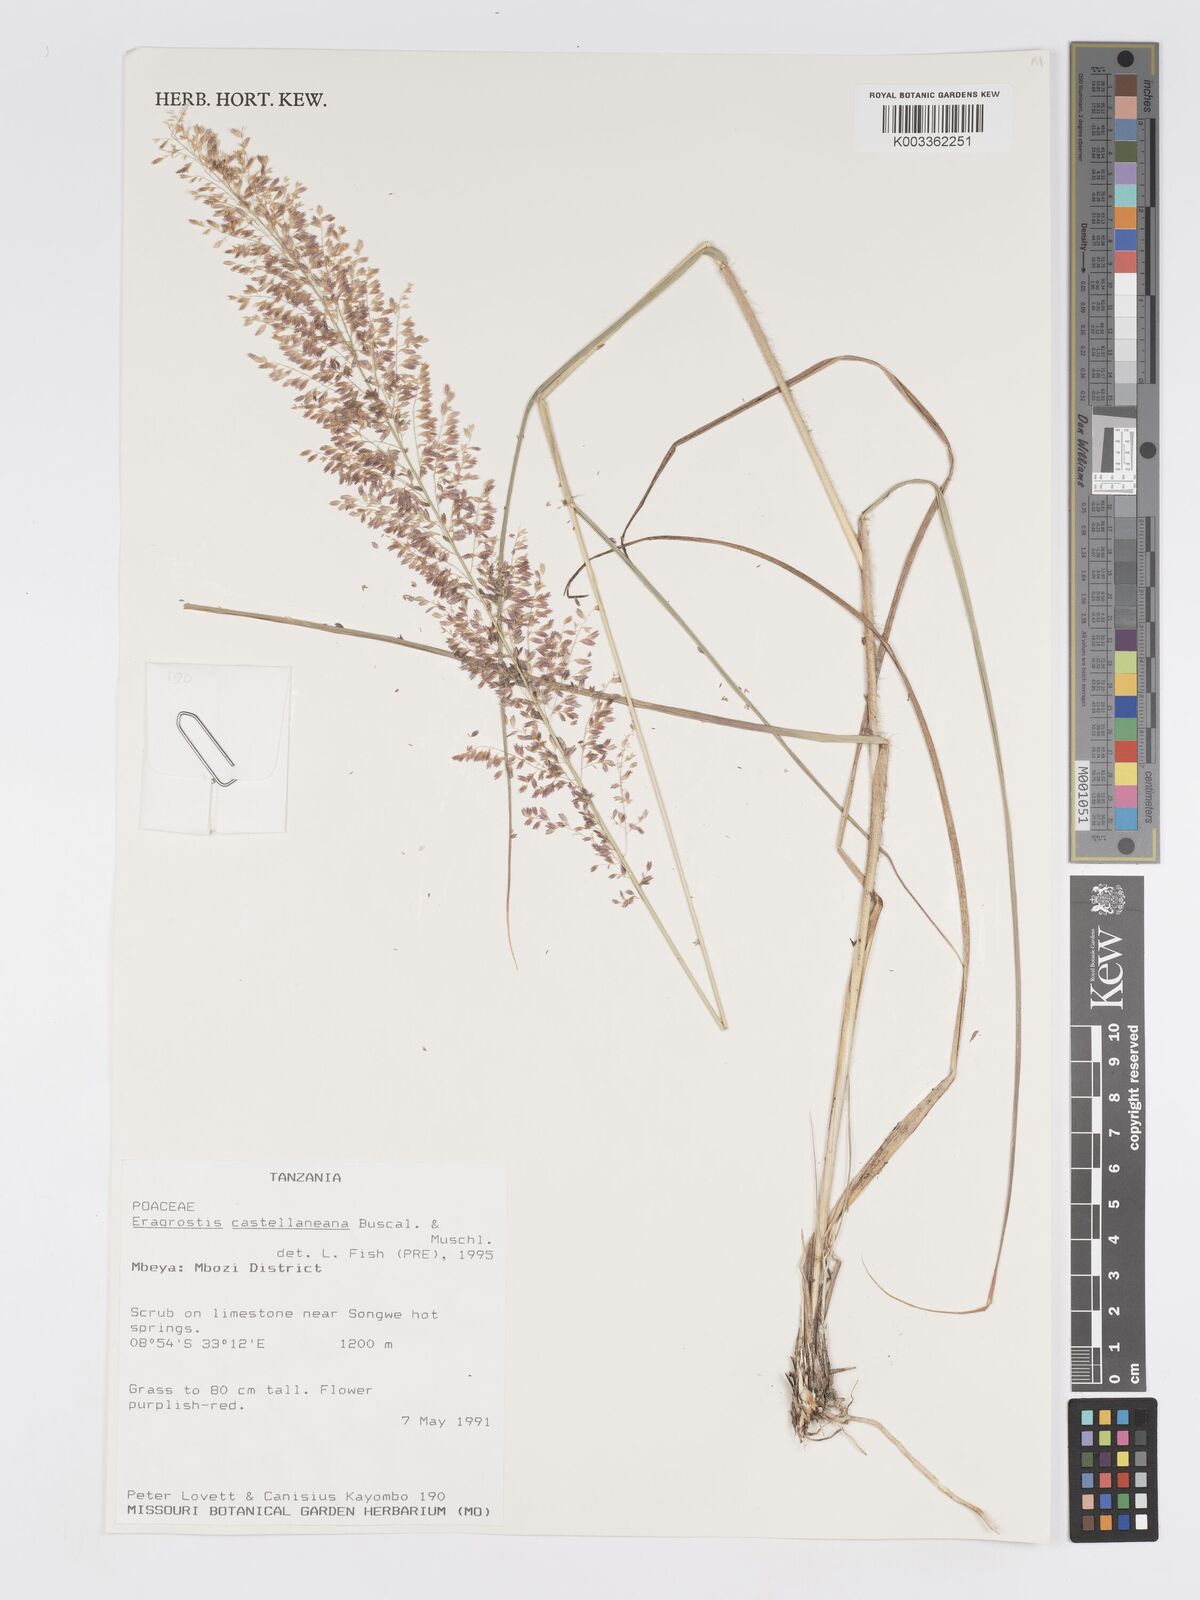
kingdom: Plantae
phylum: Tracheophyta
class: Liliopsida
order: Poales
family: Poaceae
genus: Eragrostis
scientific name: Eragrostis castellaneana
